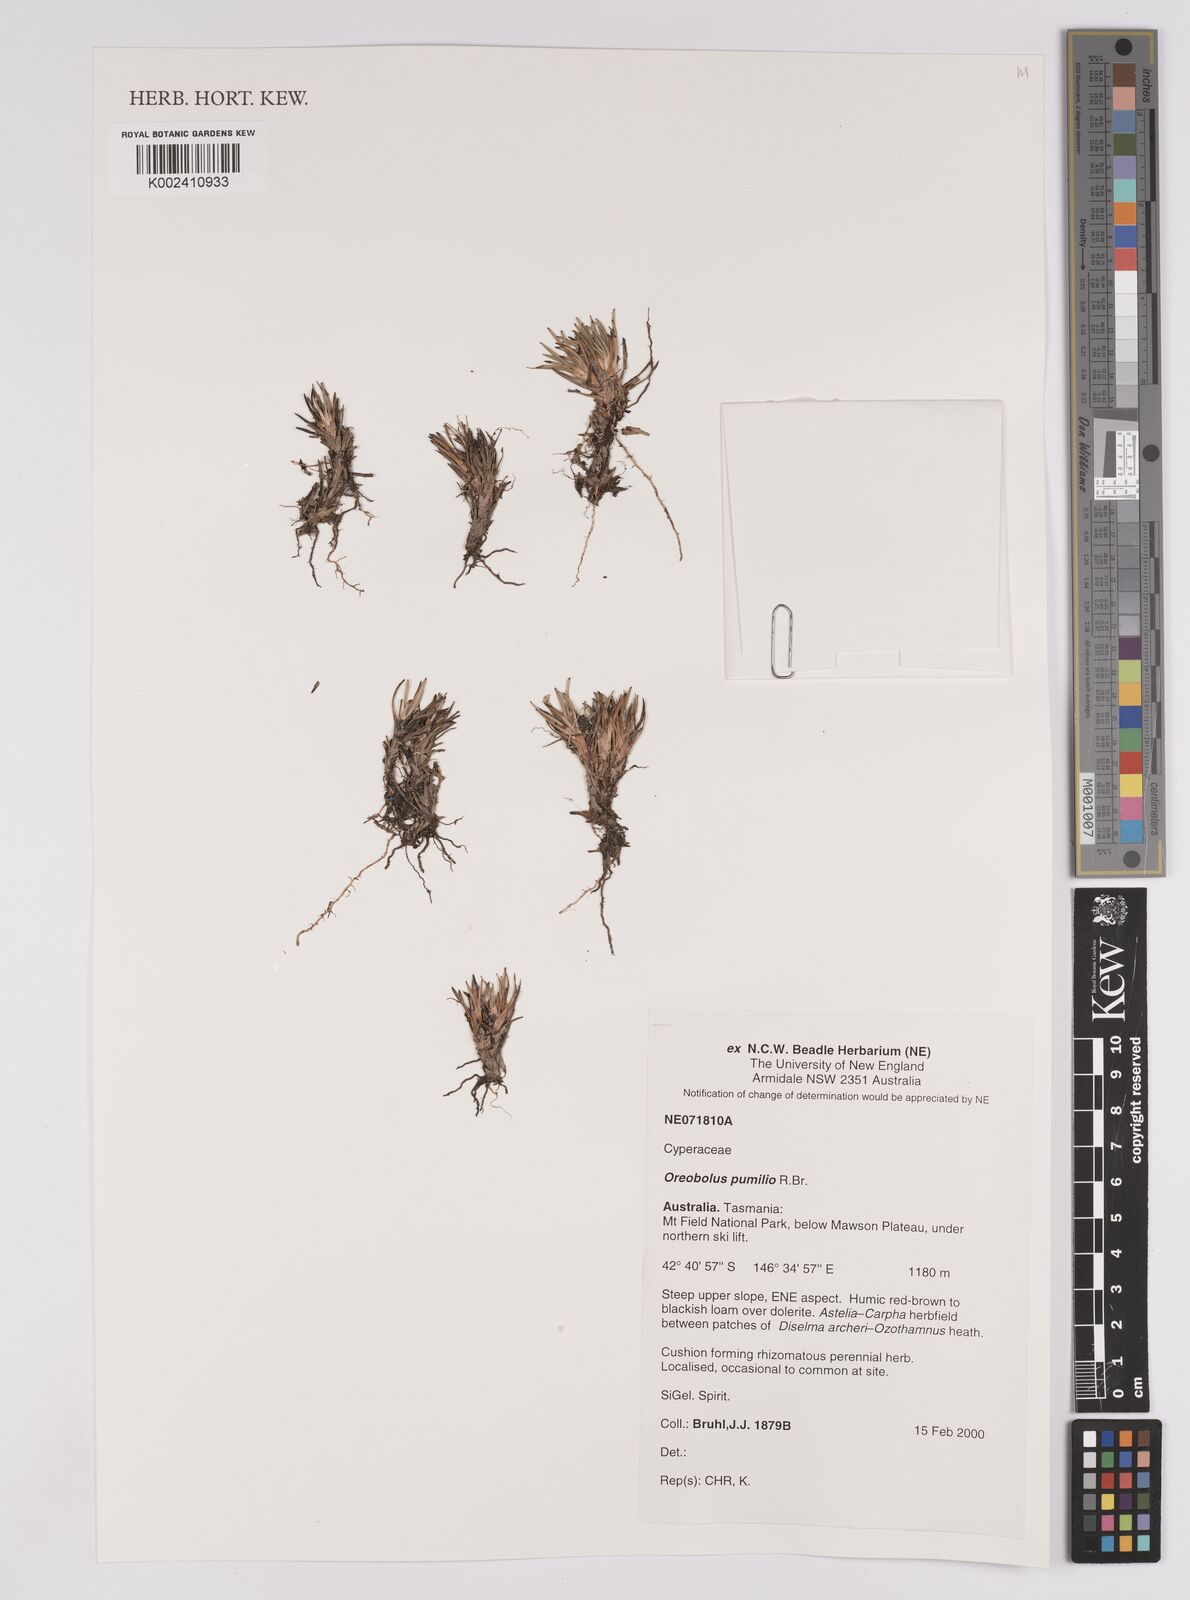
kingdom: Plantae
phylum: Tracheophyta
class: Liliopsida
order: Poales
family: Cyperaceae
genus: Oreobolus
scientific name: Oreobolus pumilio
